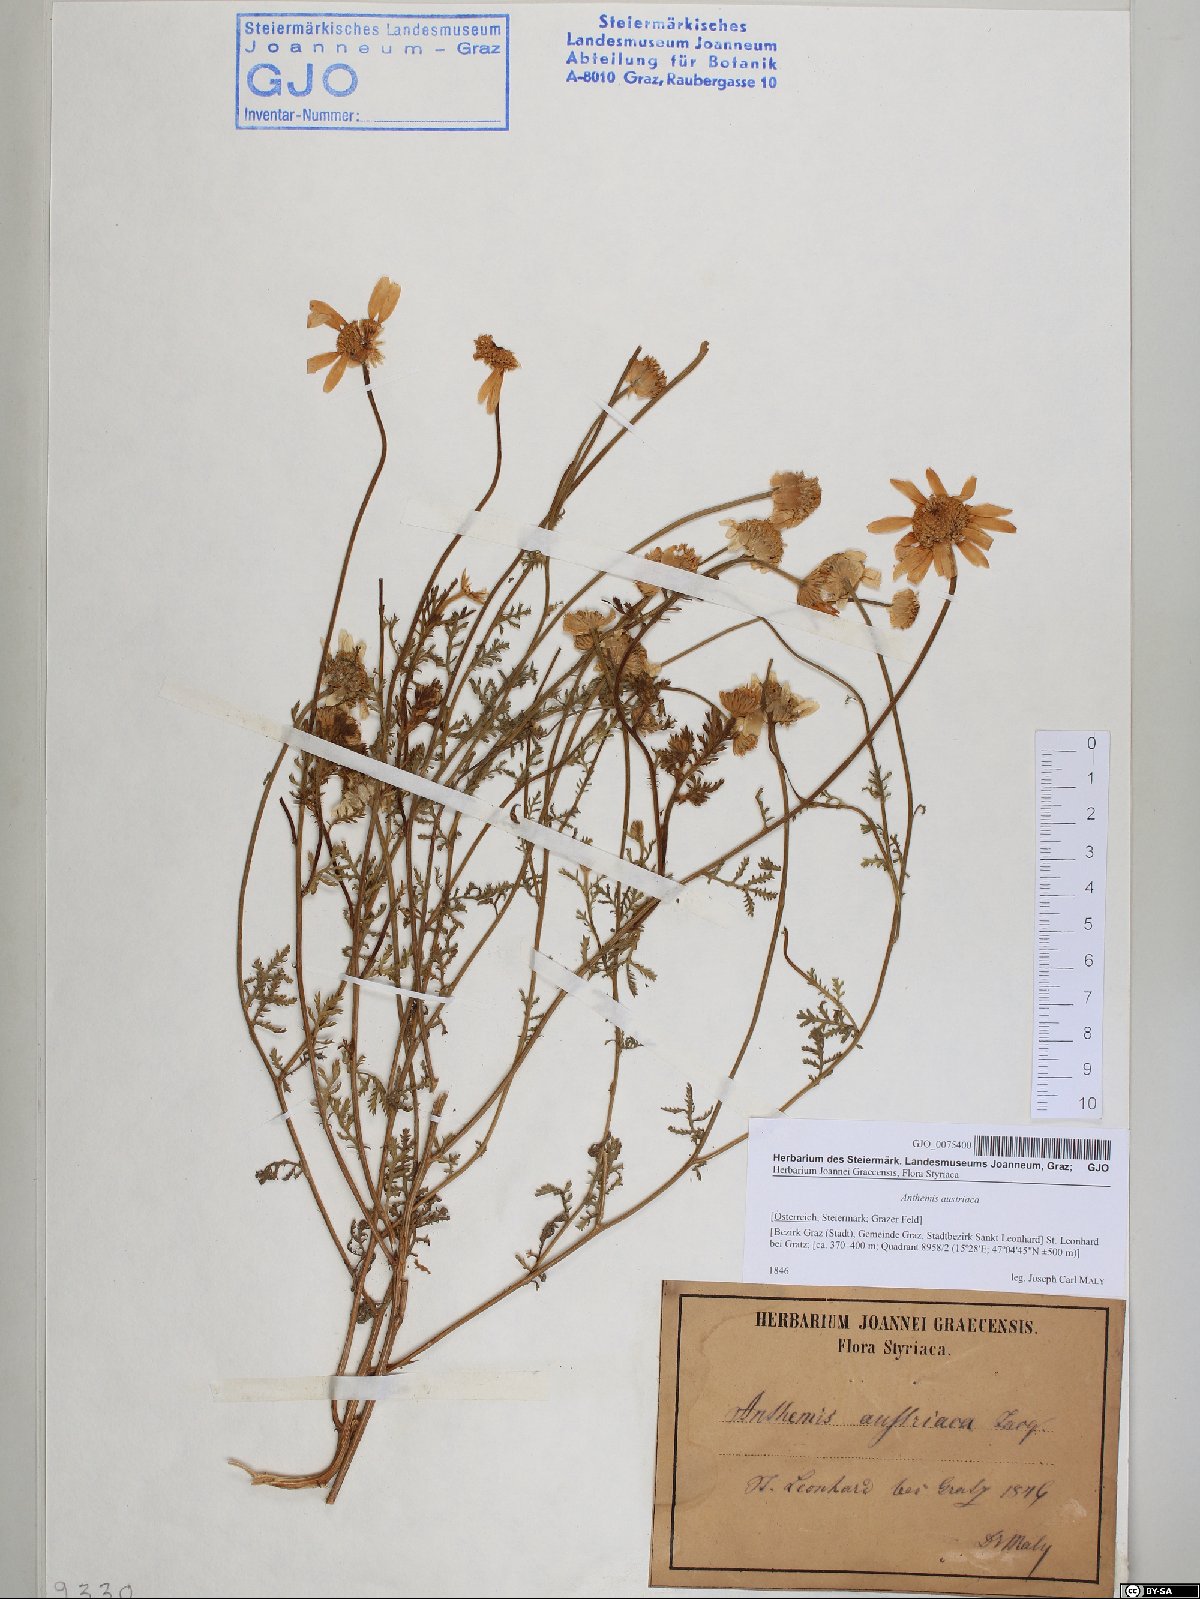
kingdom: Plantae
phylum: Tracheophyta
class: Magnoliopsida
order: Asterales
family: Asteraceae
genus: Cota
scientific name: Cota austriaca
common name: Austrian chamomile
